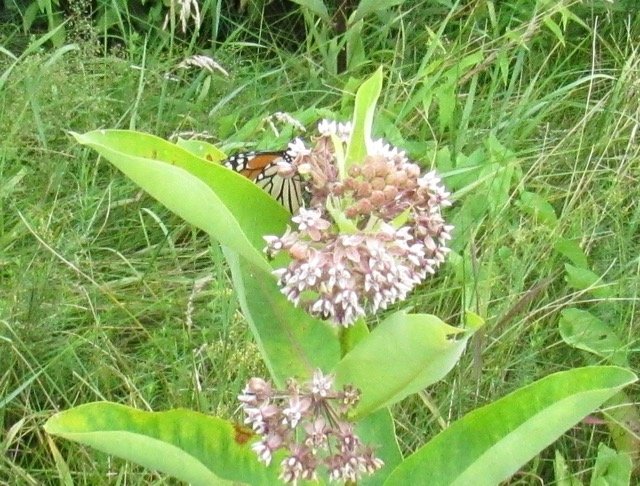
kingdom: Animalia
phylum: Arthropoda
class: Insecta
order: Lepidoptera
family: Nymphalidae
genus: Danaus
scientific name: Danaus plexippus
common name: Monarch
